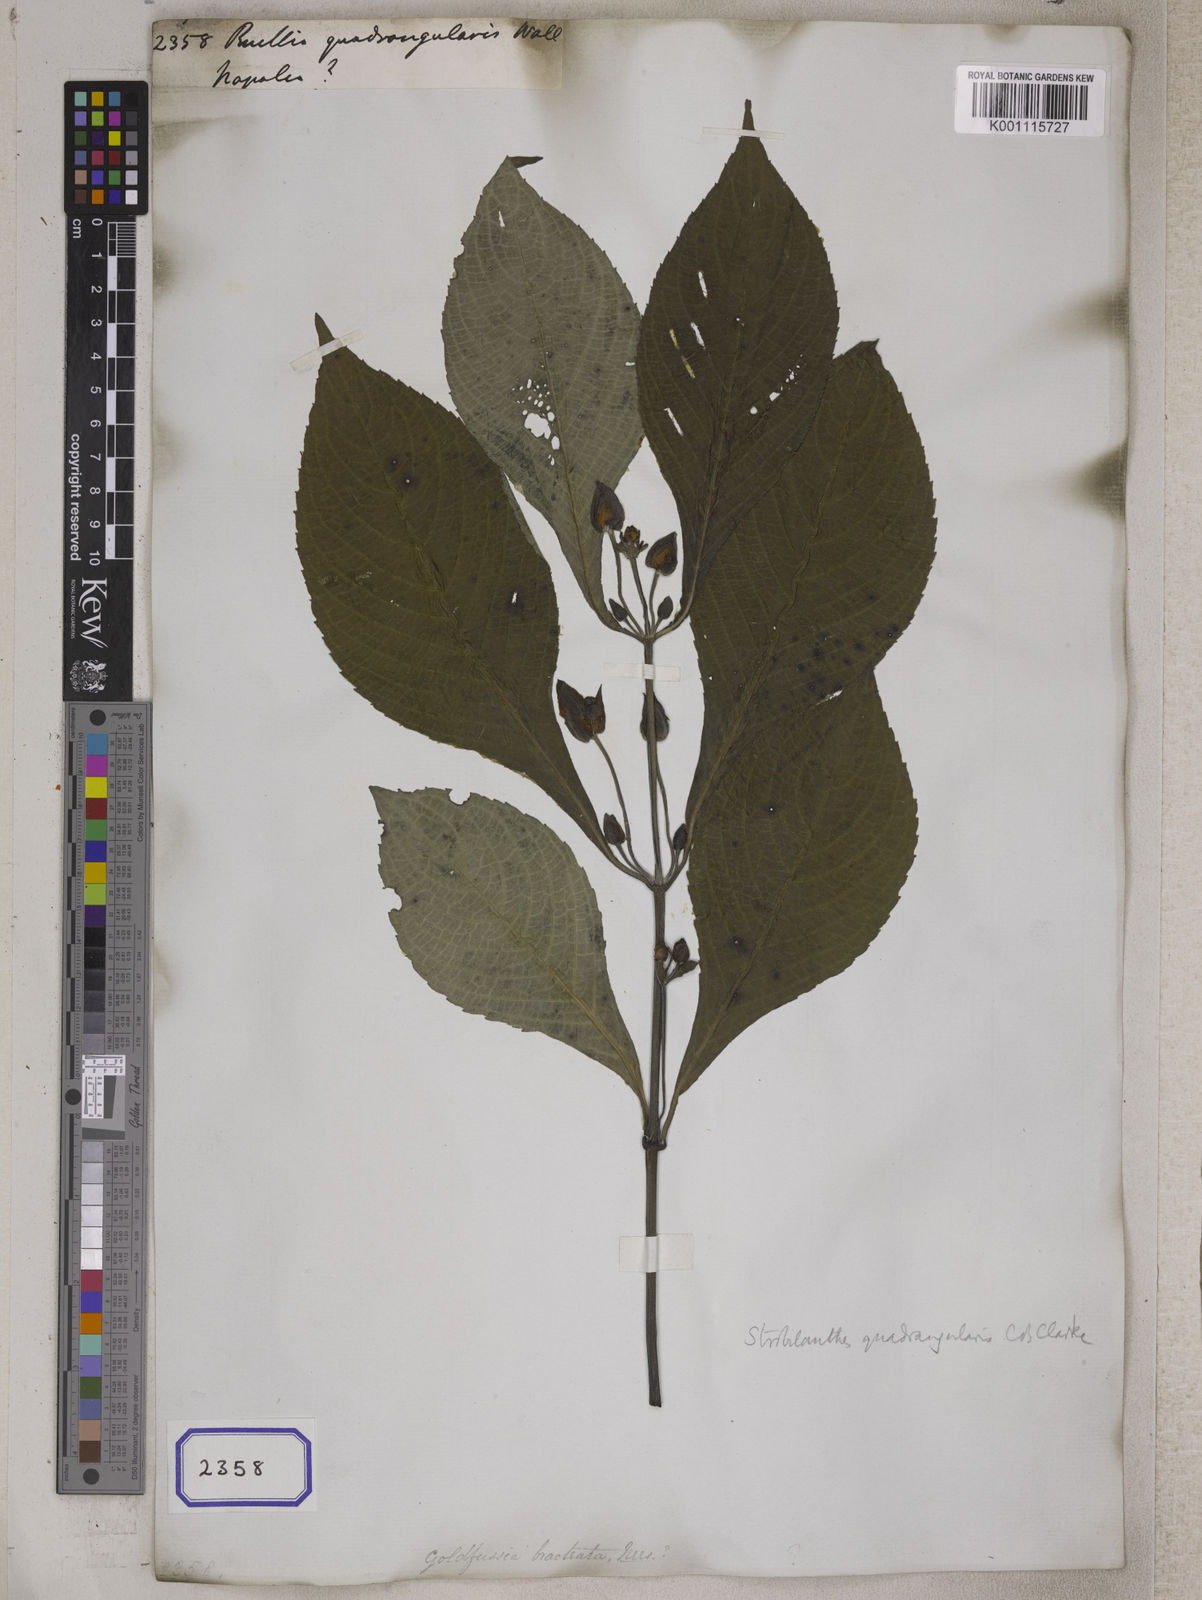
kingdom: Plantae
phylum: Tracheophyta
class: Magnoliopsida
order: Lamiales
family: Acanthaceae
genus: Strobilanthes
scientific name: Strobilanthes bracteata
